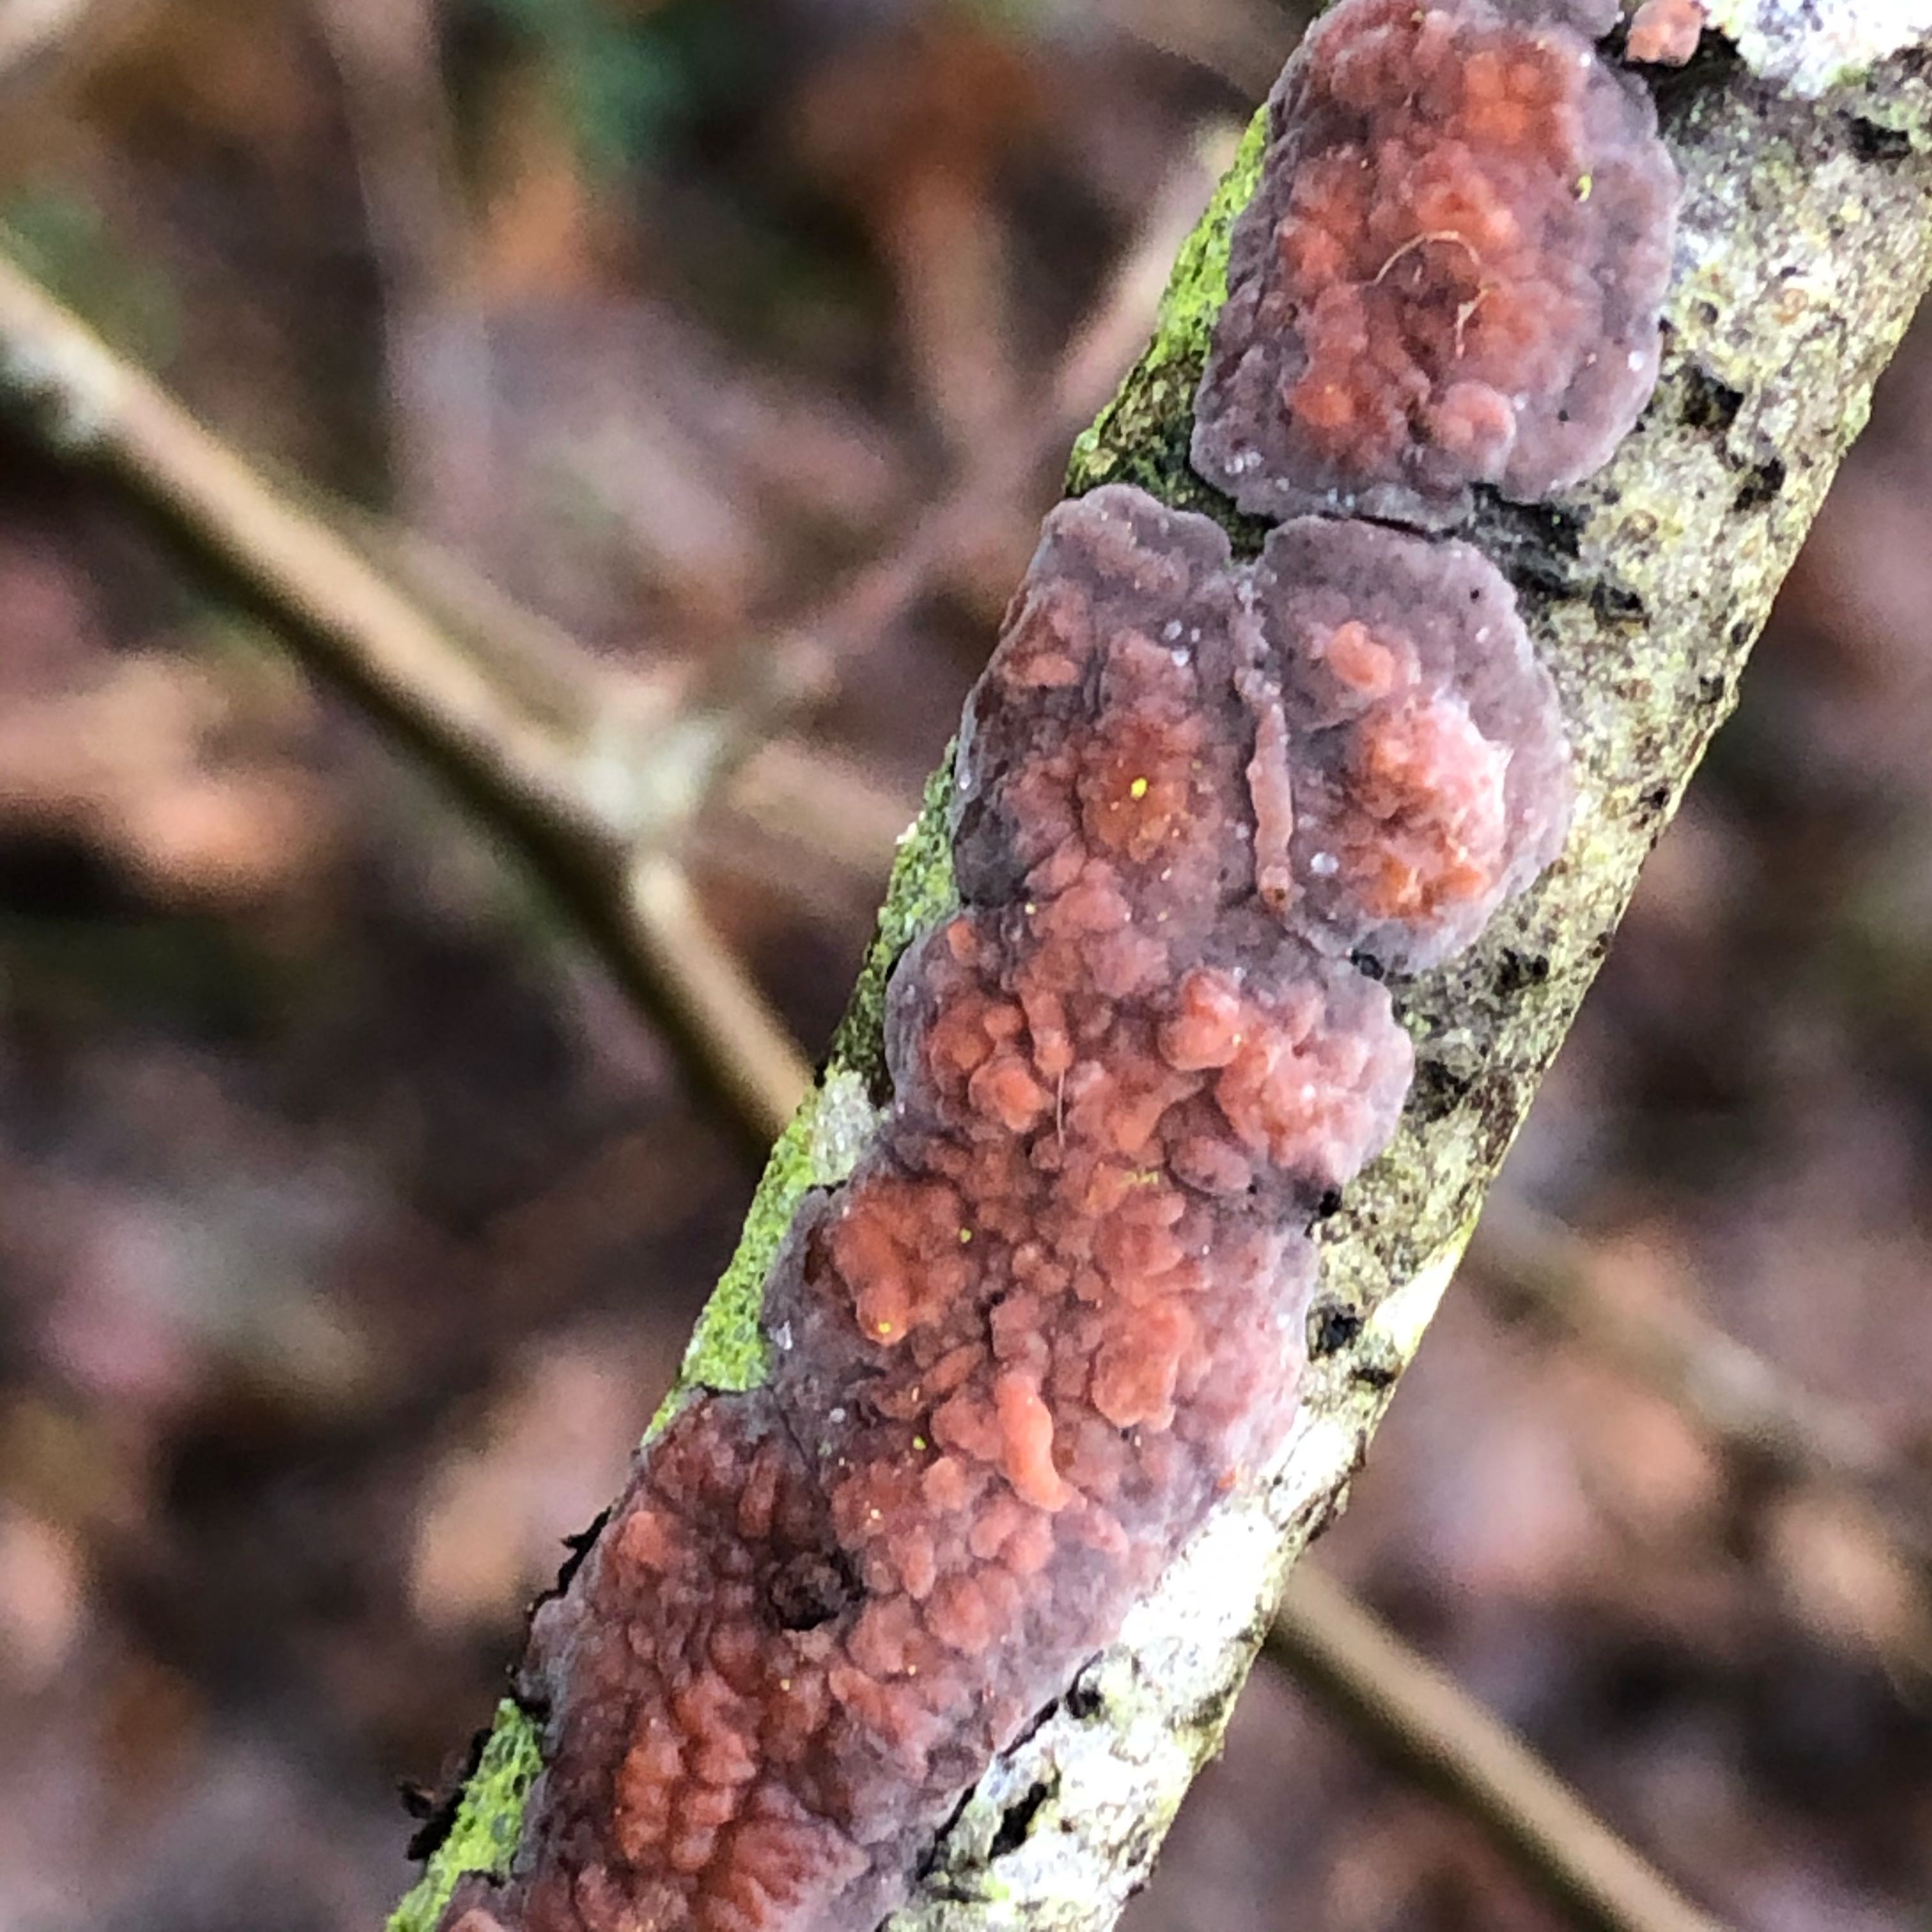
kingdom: Fungi
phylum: Basidiomycota
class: Agaricomycetes
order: Russulales
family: Peniophoraceae
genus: Peniophora
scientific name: Peniophora quercina
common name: ege-voksskind
